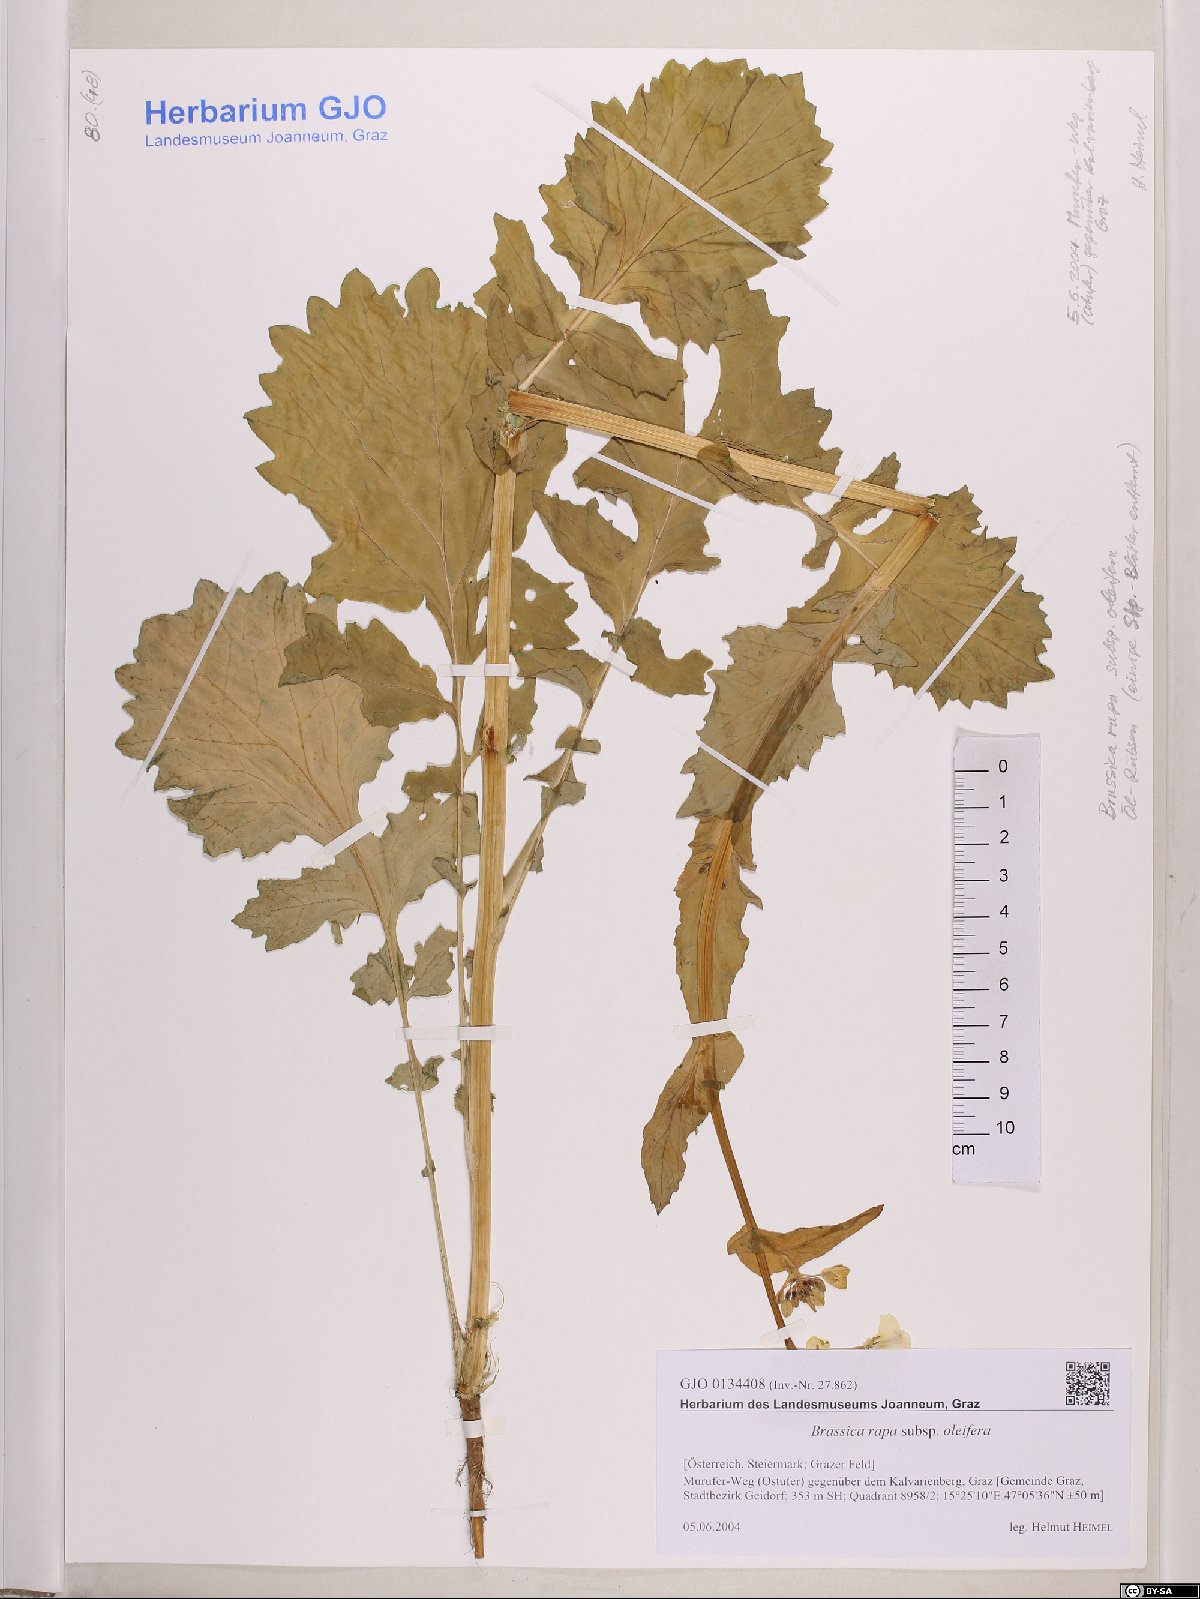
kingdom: Plantae
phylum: Tracheophyta
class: Magnoliopsida
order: Brassicales
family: Brassicaceae
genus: Brassica
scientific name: Brassica rapa
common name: Field mustard
